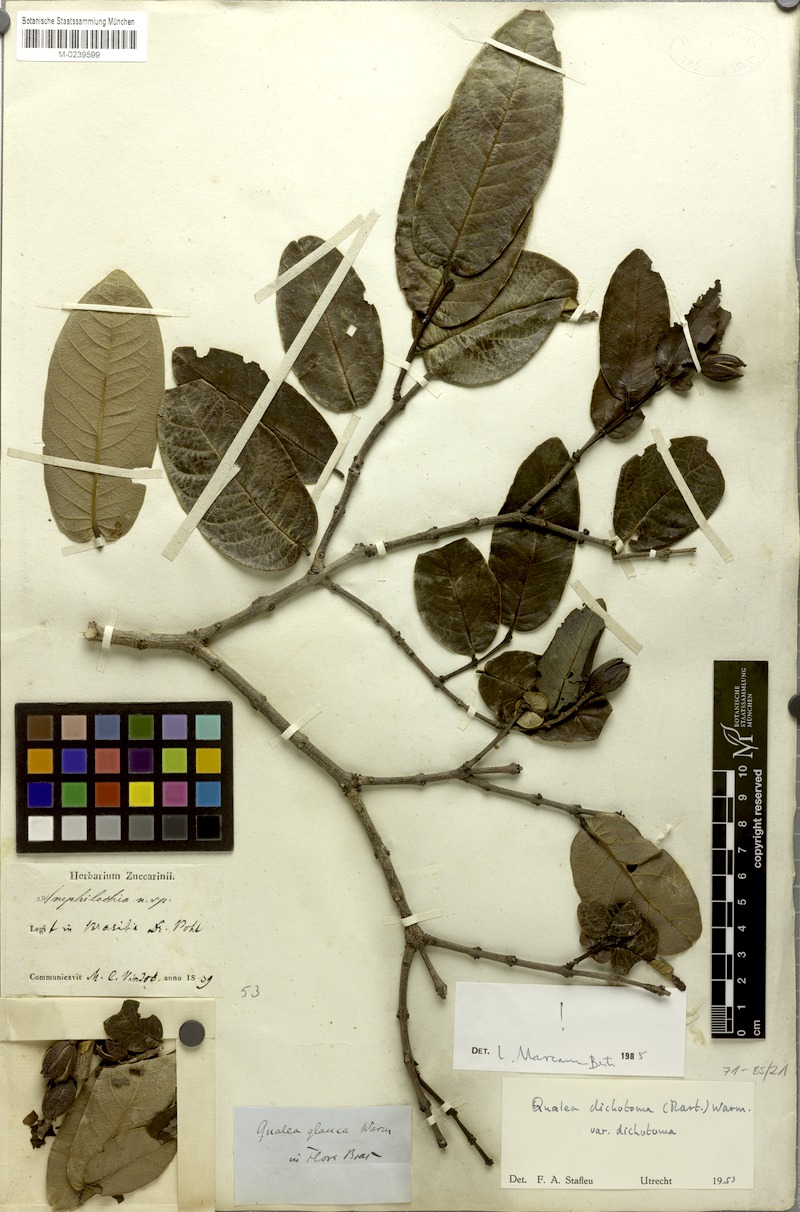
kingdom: Plantae
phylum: Tracheophyta
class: Magnoliopsida
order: Myrtales
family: Vochysiaceae
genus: Qualea
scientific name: Qualea cordata
